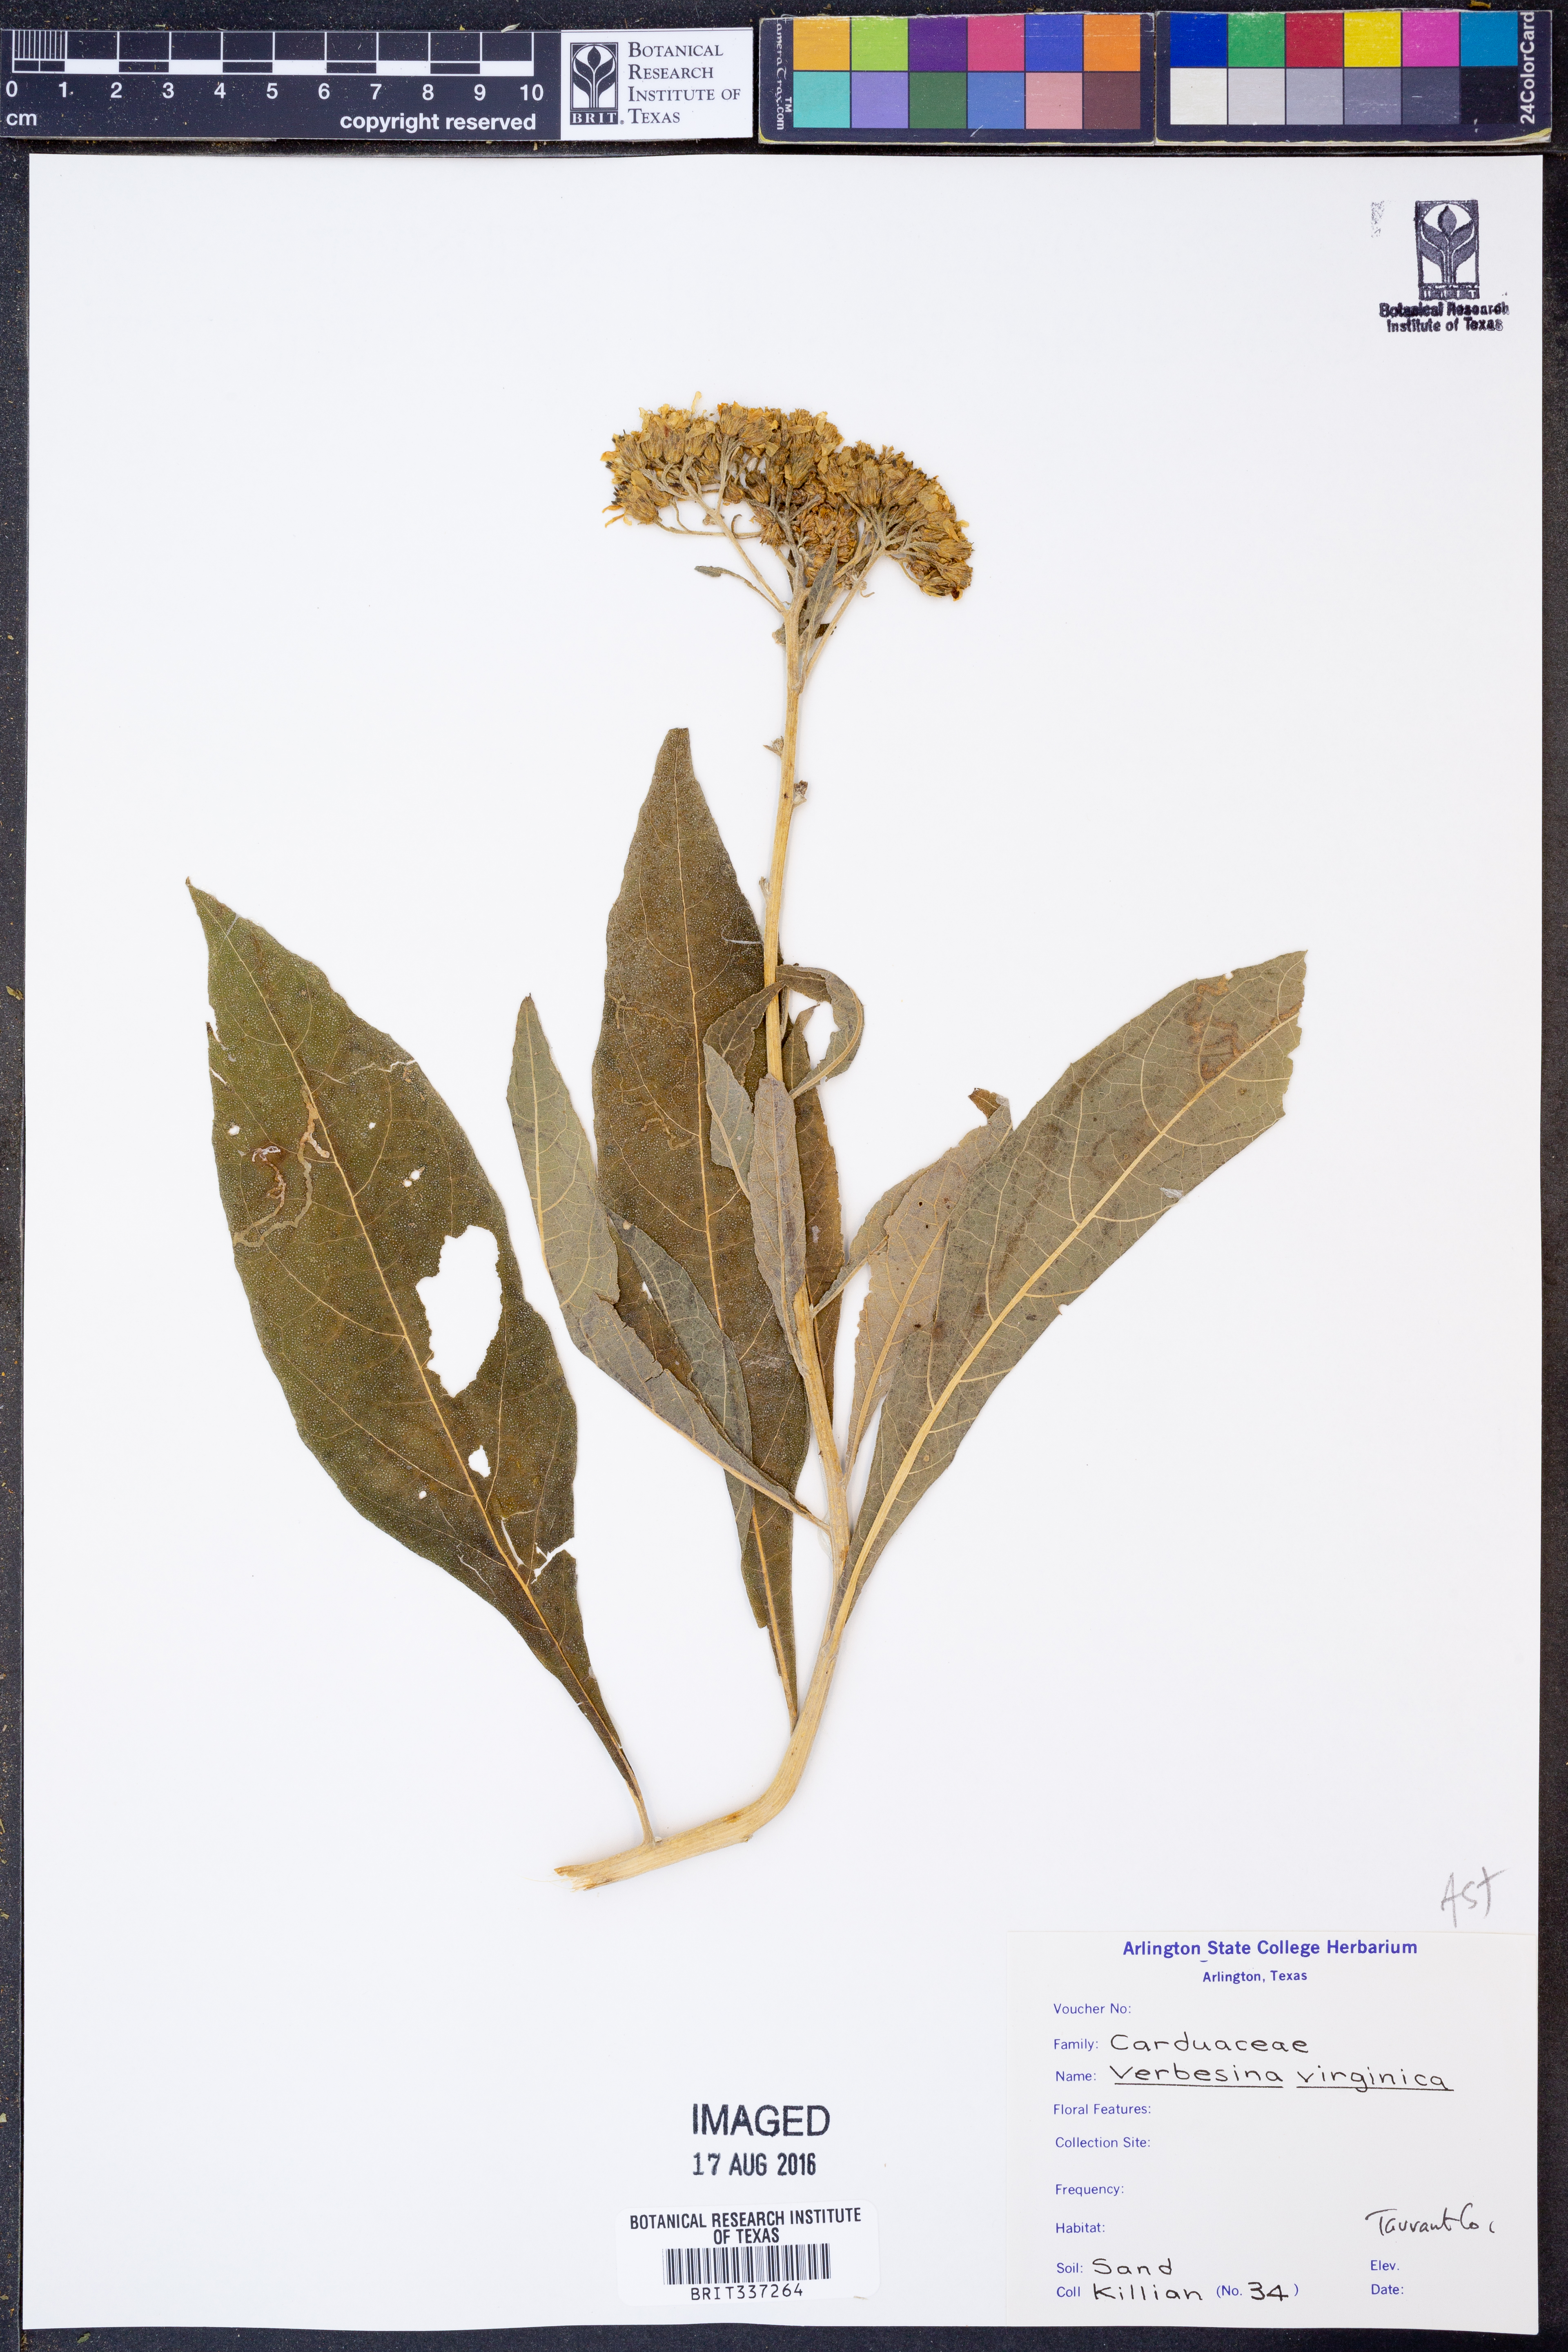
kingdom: Plantae
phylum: Tracheophyta
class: Magnoliopsida
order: Asterales
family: Asteraceae
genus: Verbesina
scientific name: Verbesina virginica
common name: Frostweed
